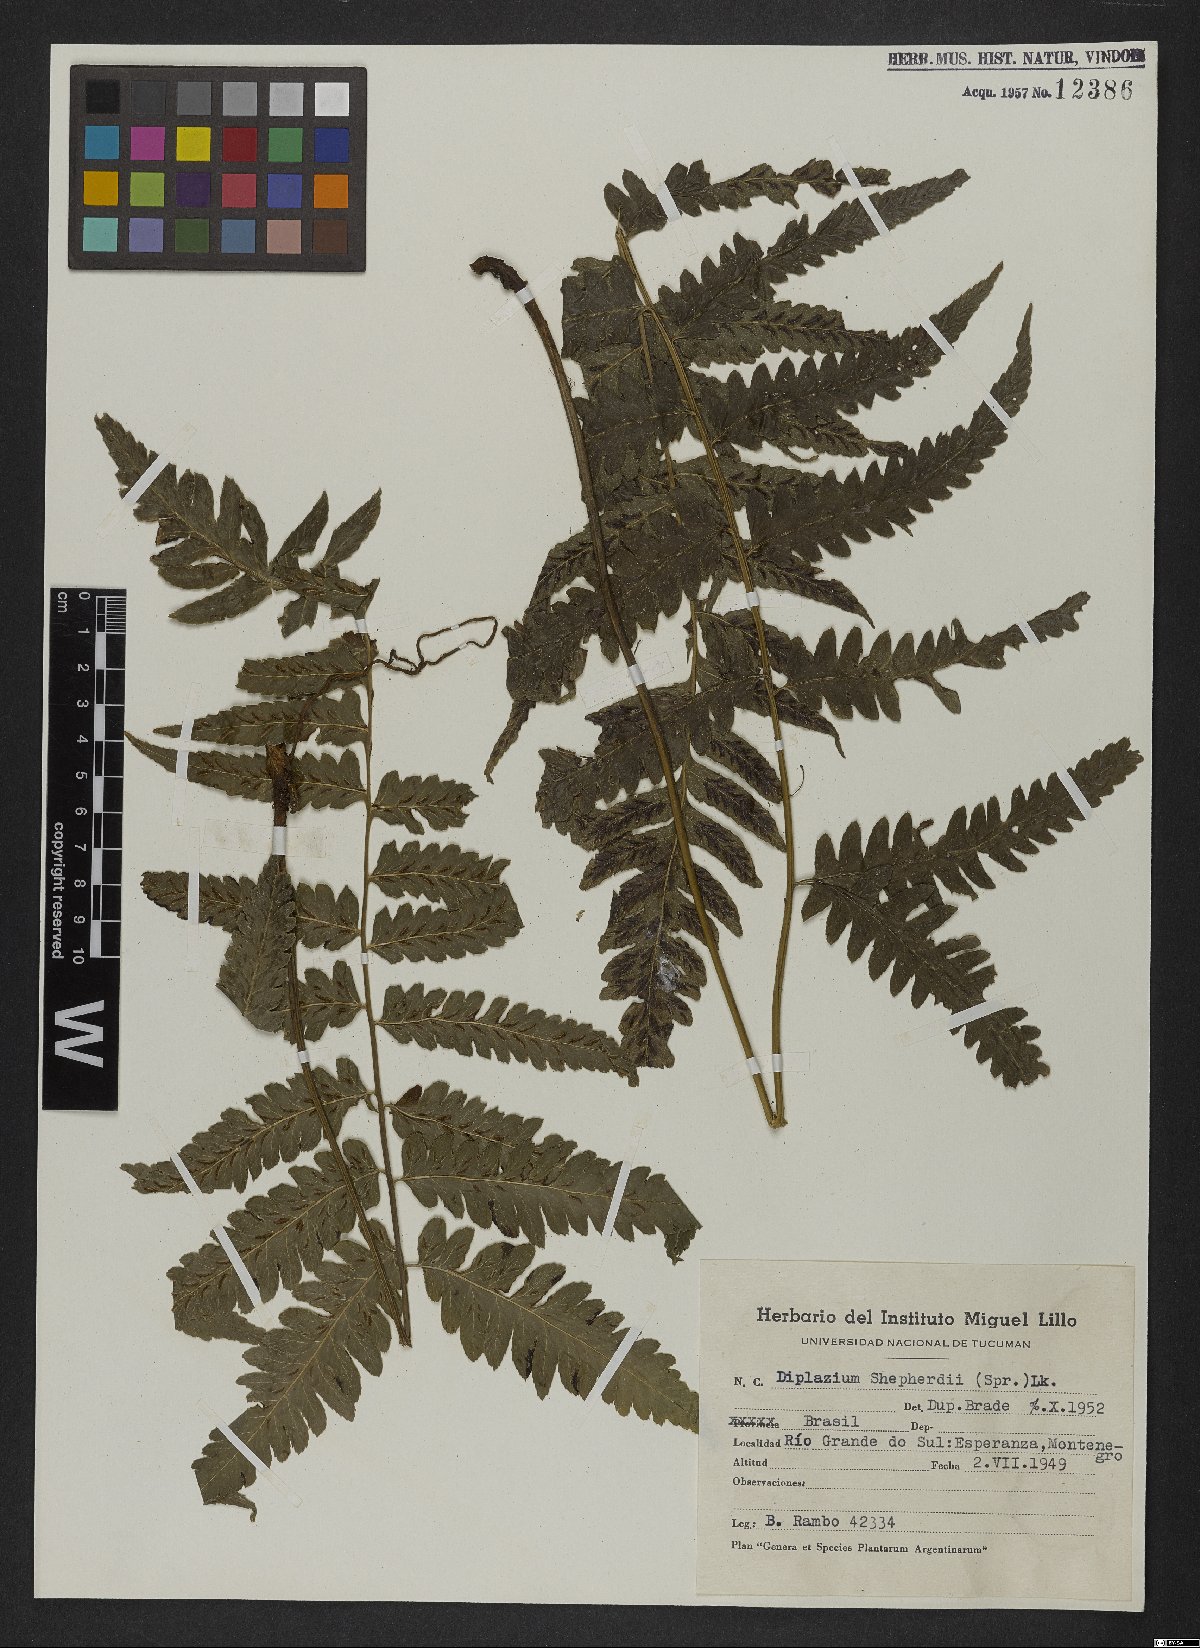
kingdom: Plantae
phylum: Tracheophyta
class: Polypodiopsida
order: Polypodiales
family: Athyriaceae
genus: Diplazium
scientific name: Diplazium cristatum
